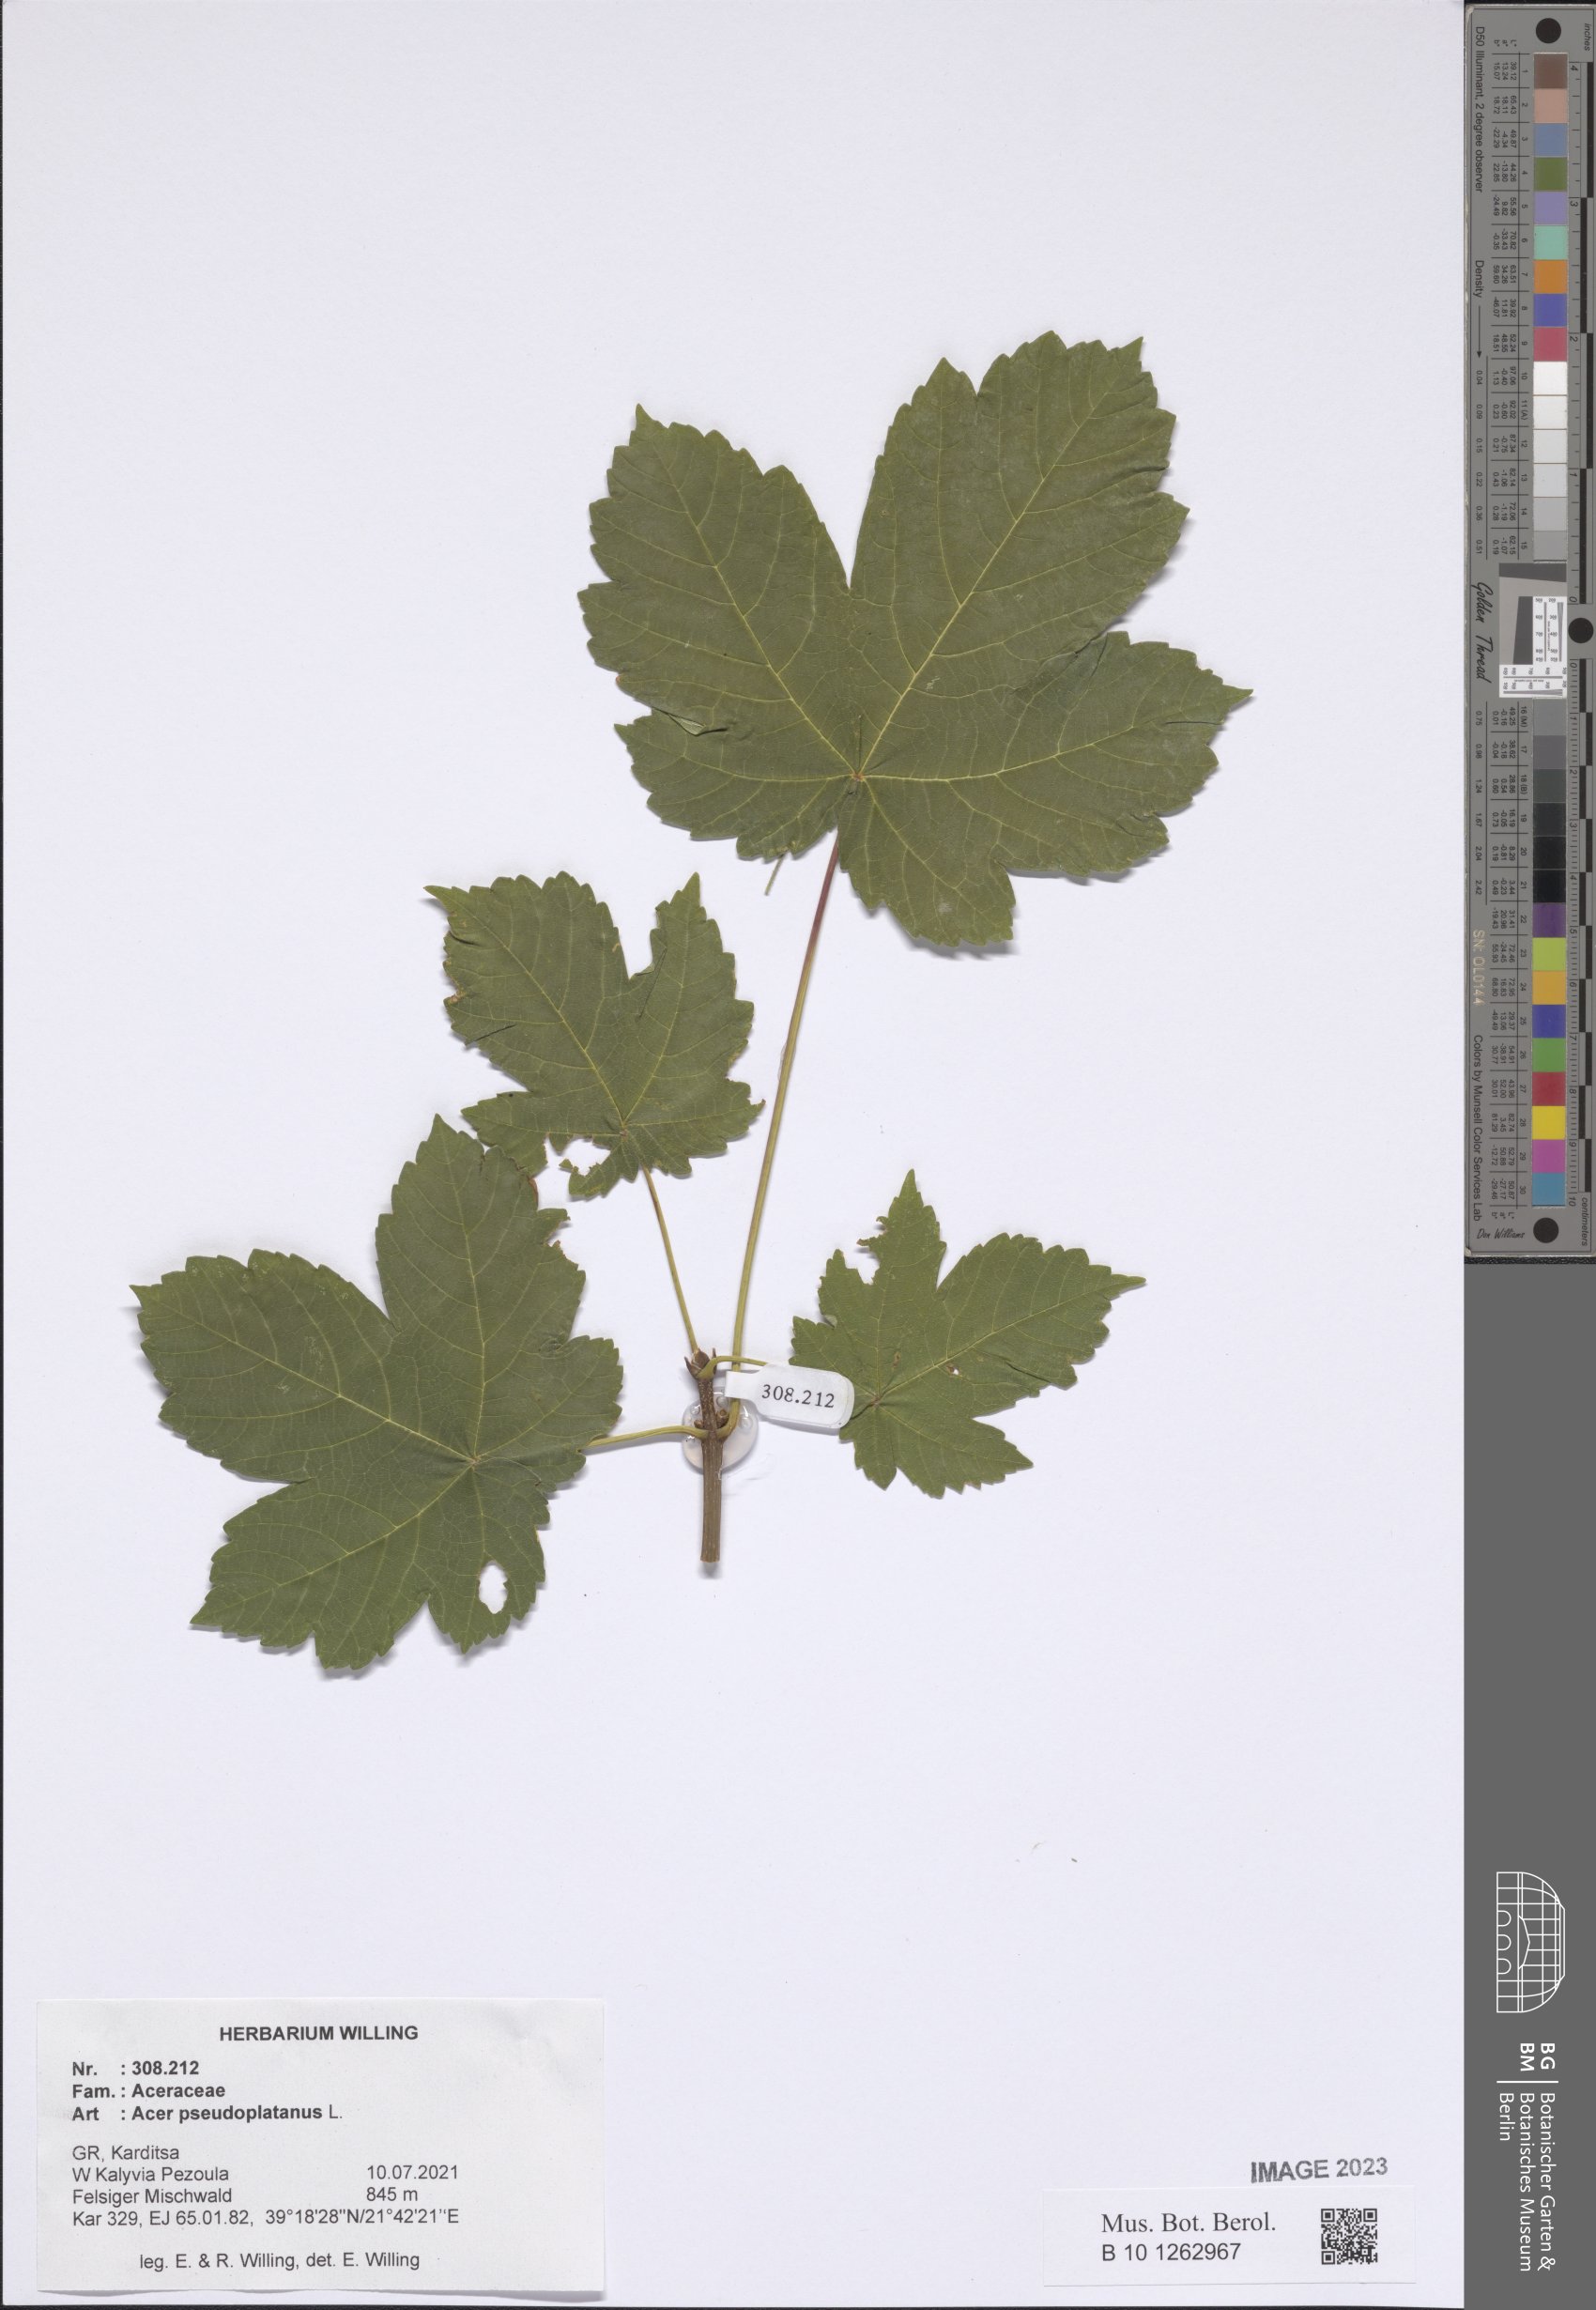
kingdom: Plantae
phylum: Tracheophyta
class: Magnoliopsida
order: Sapindales
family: Sapindaceae
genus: Acer
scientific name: Acer pseudoplatanus
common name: Sycamore
